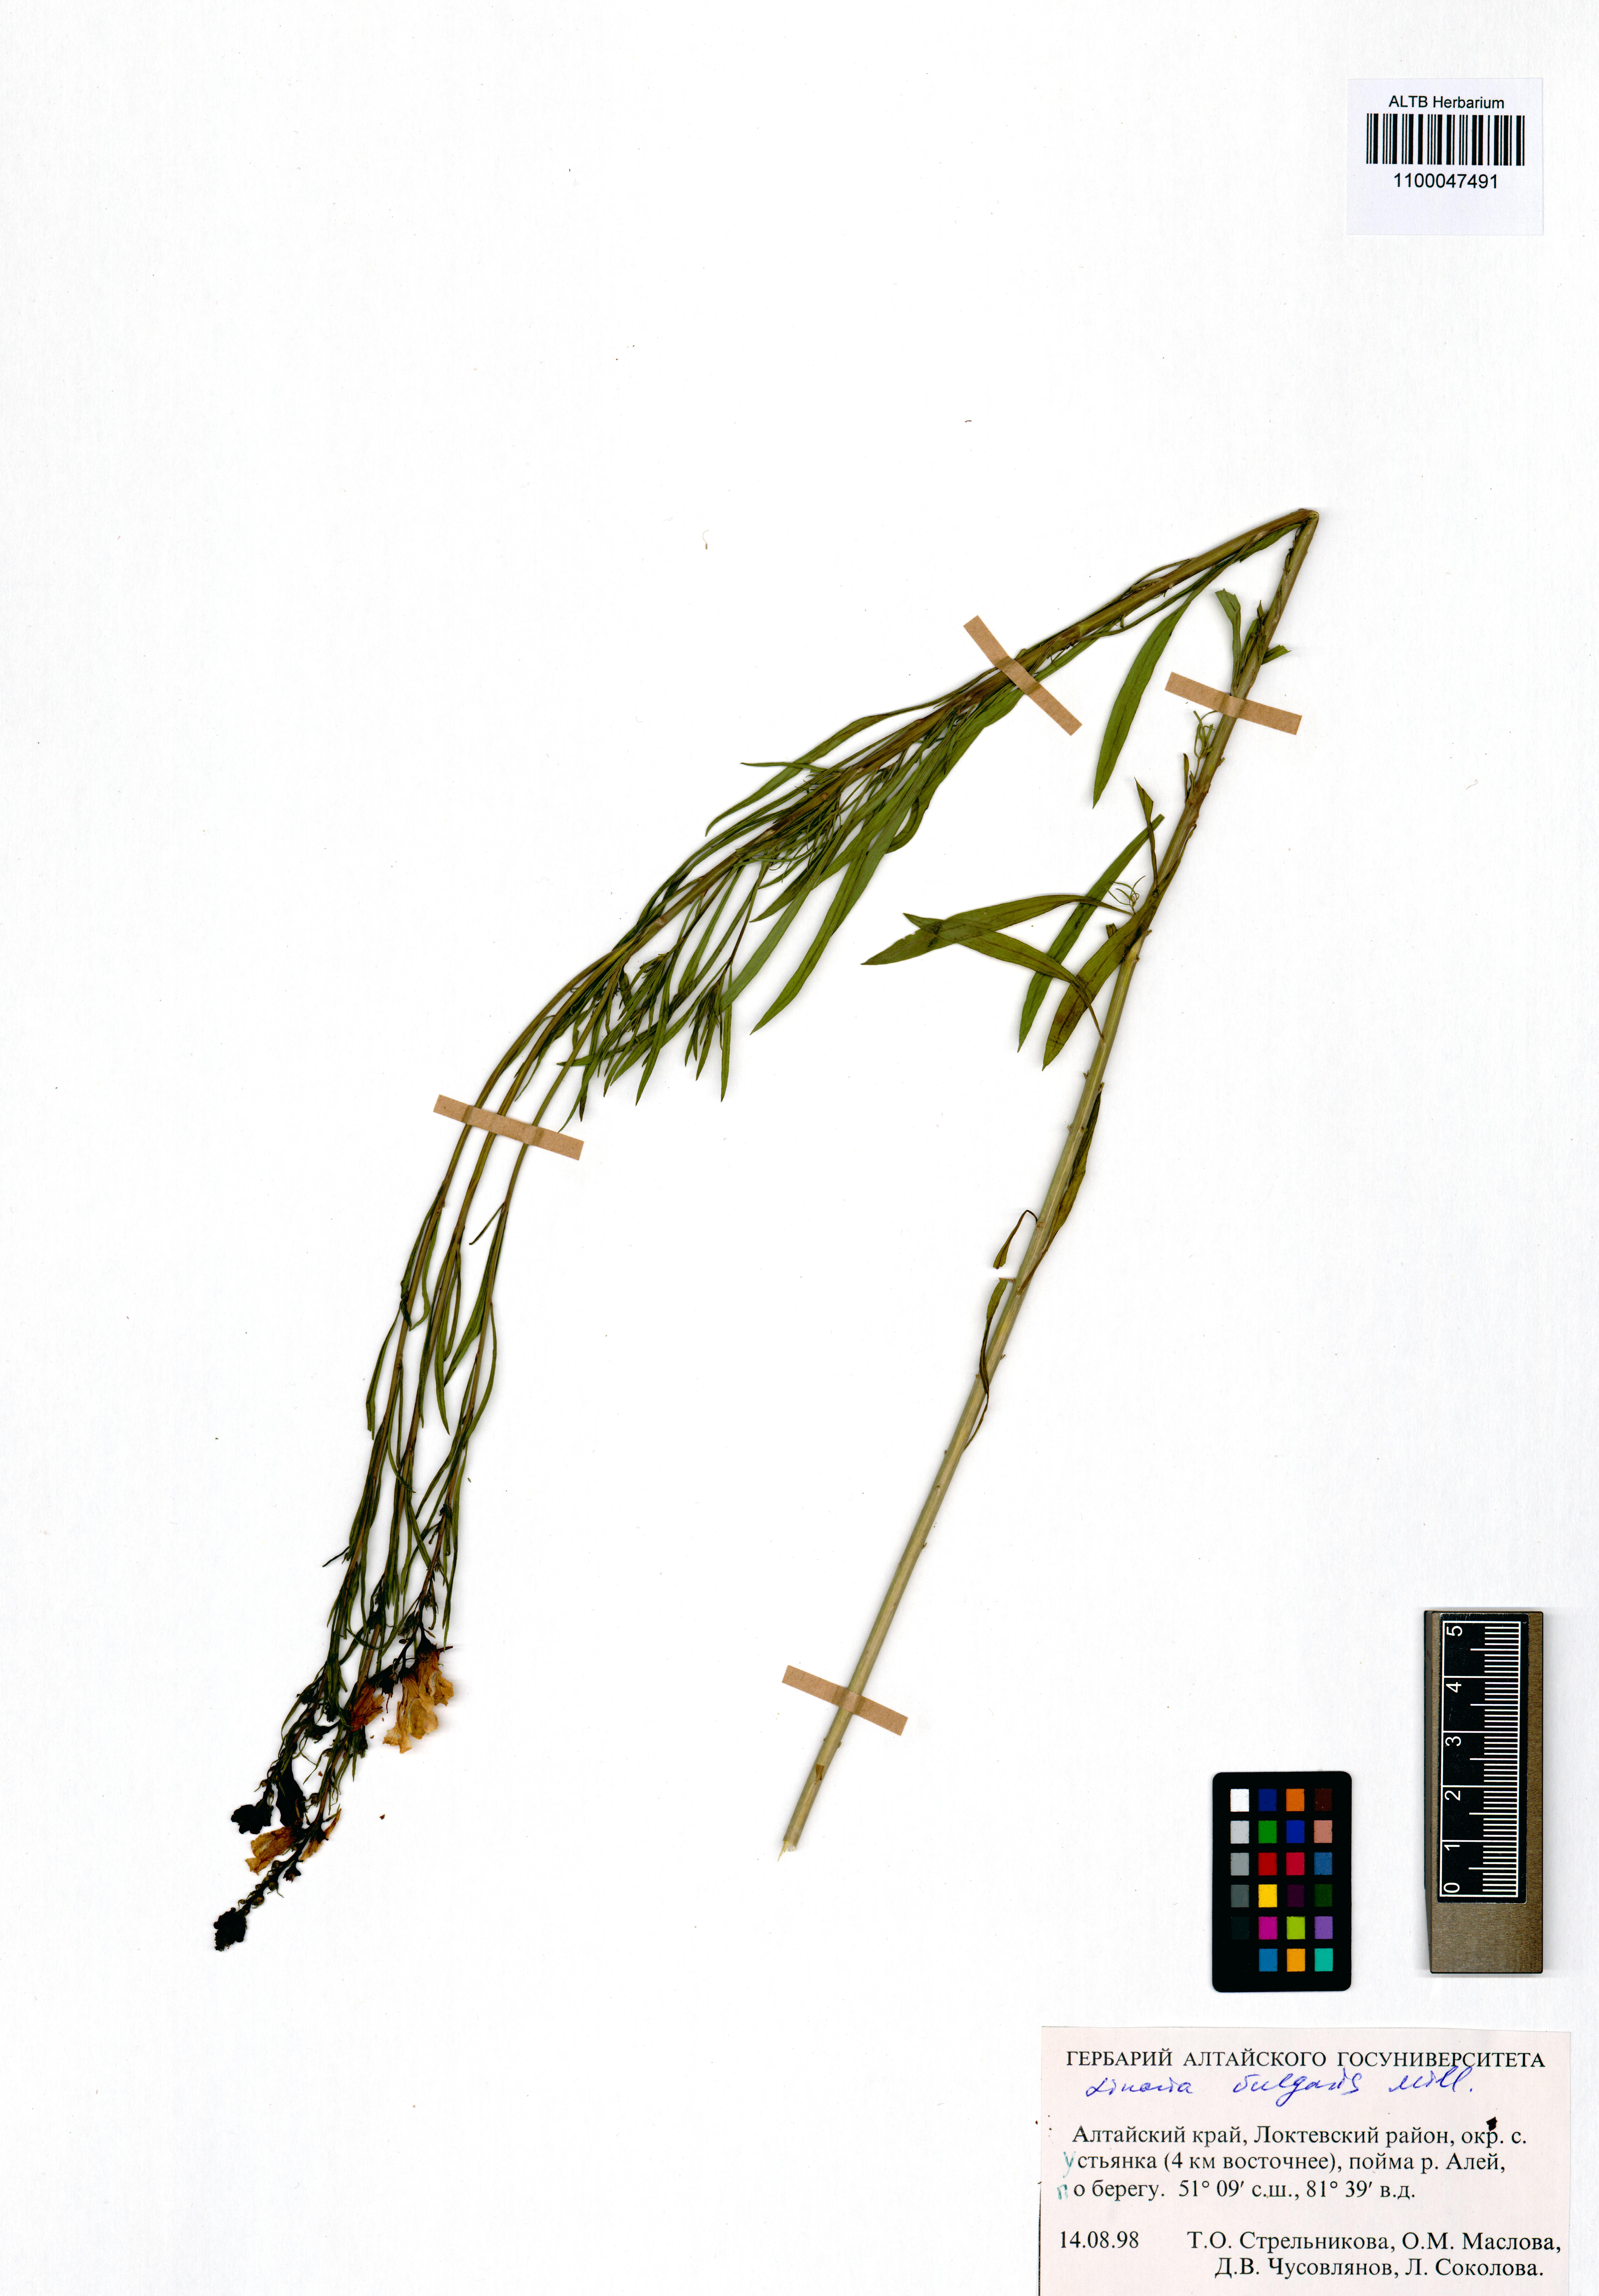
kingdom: Plantae
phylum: Tracheophyta
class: Magnoliopsida
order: Lamiales
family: Plantaginaceae
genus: Linaria
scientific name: Linaria vulgaris
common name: Butter and eggs
